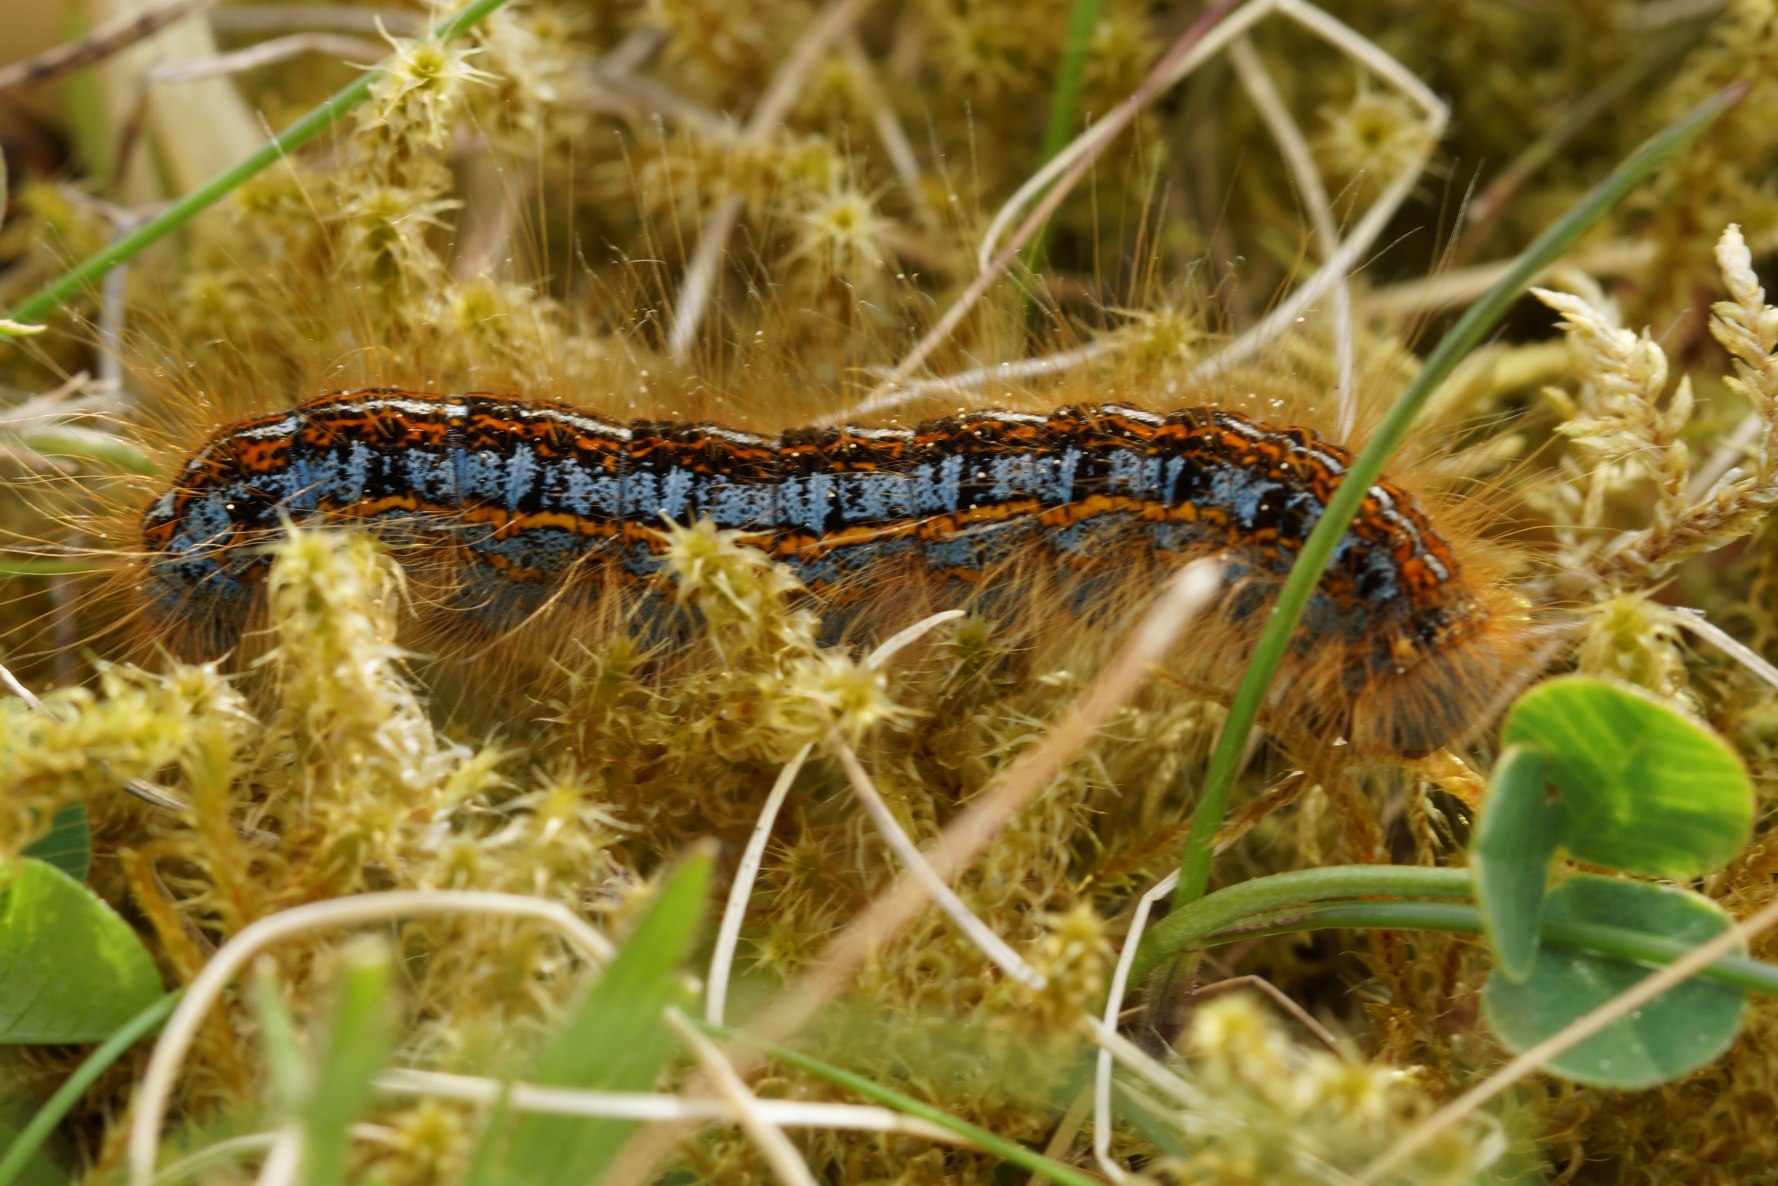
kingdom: Animalia
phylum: Arthropoda
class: Insecta
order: Lepidoptera
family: Lasiocampidae
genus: Malacosoma
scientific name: Malacosoma castrensis
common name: Redespinder
